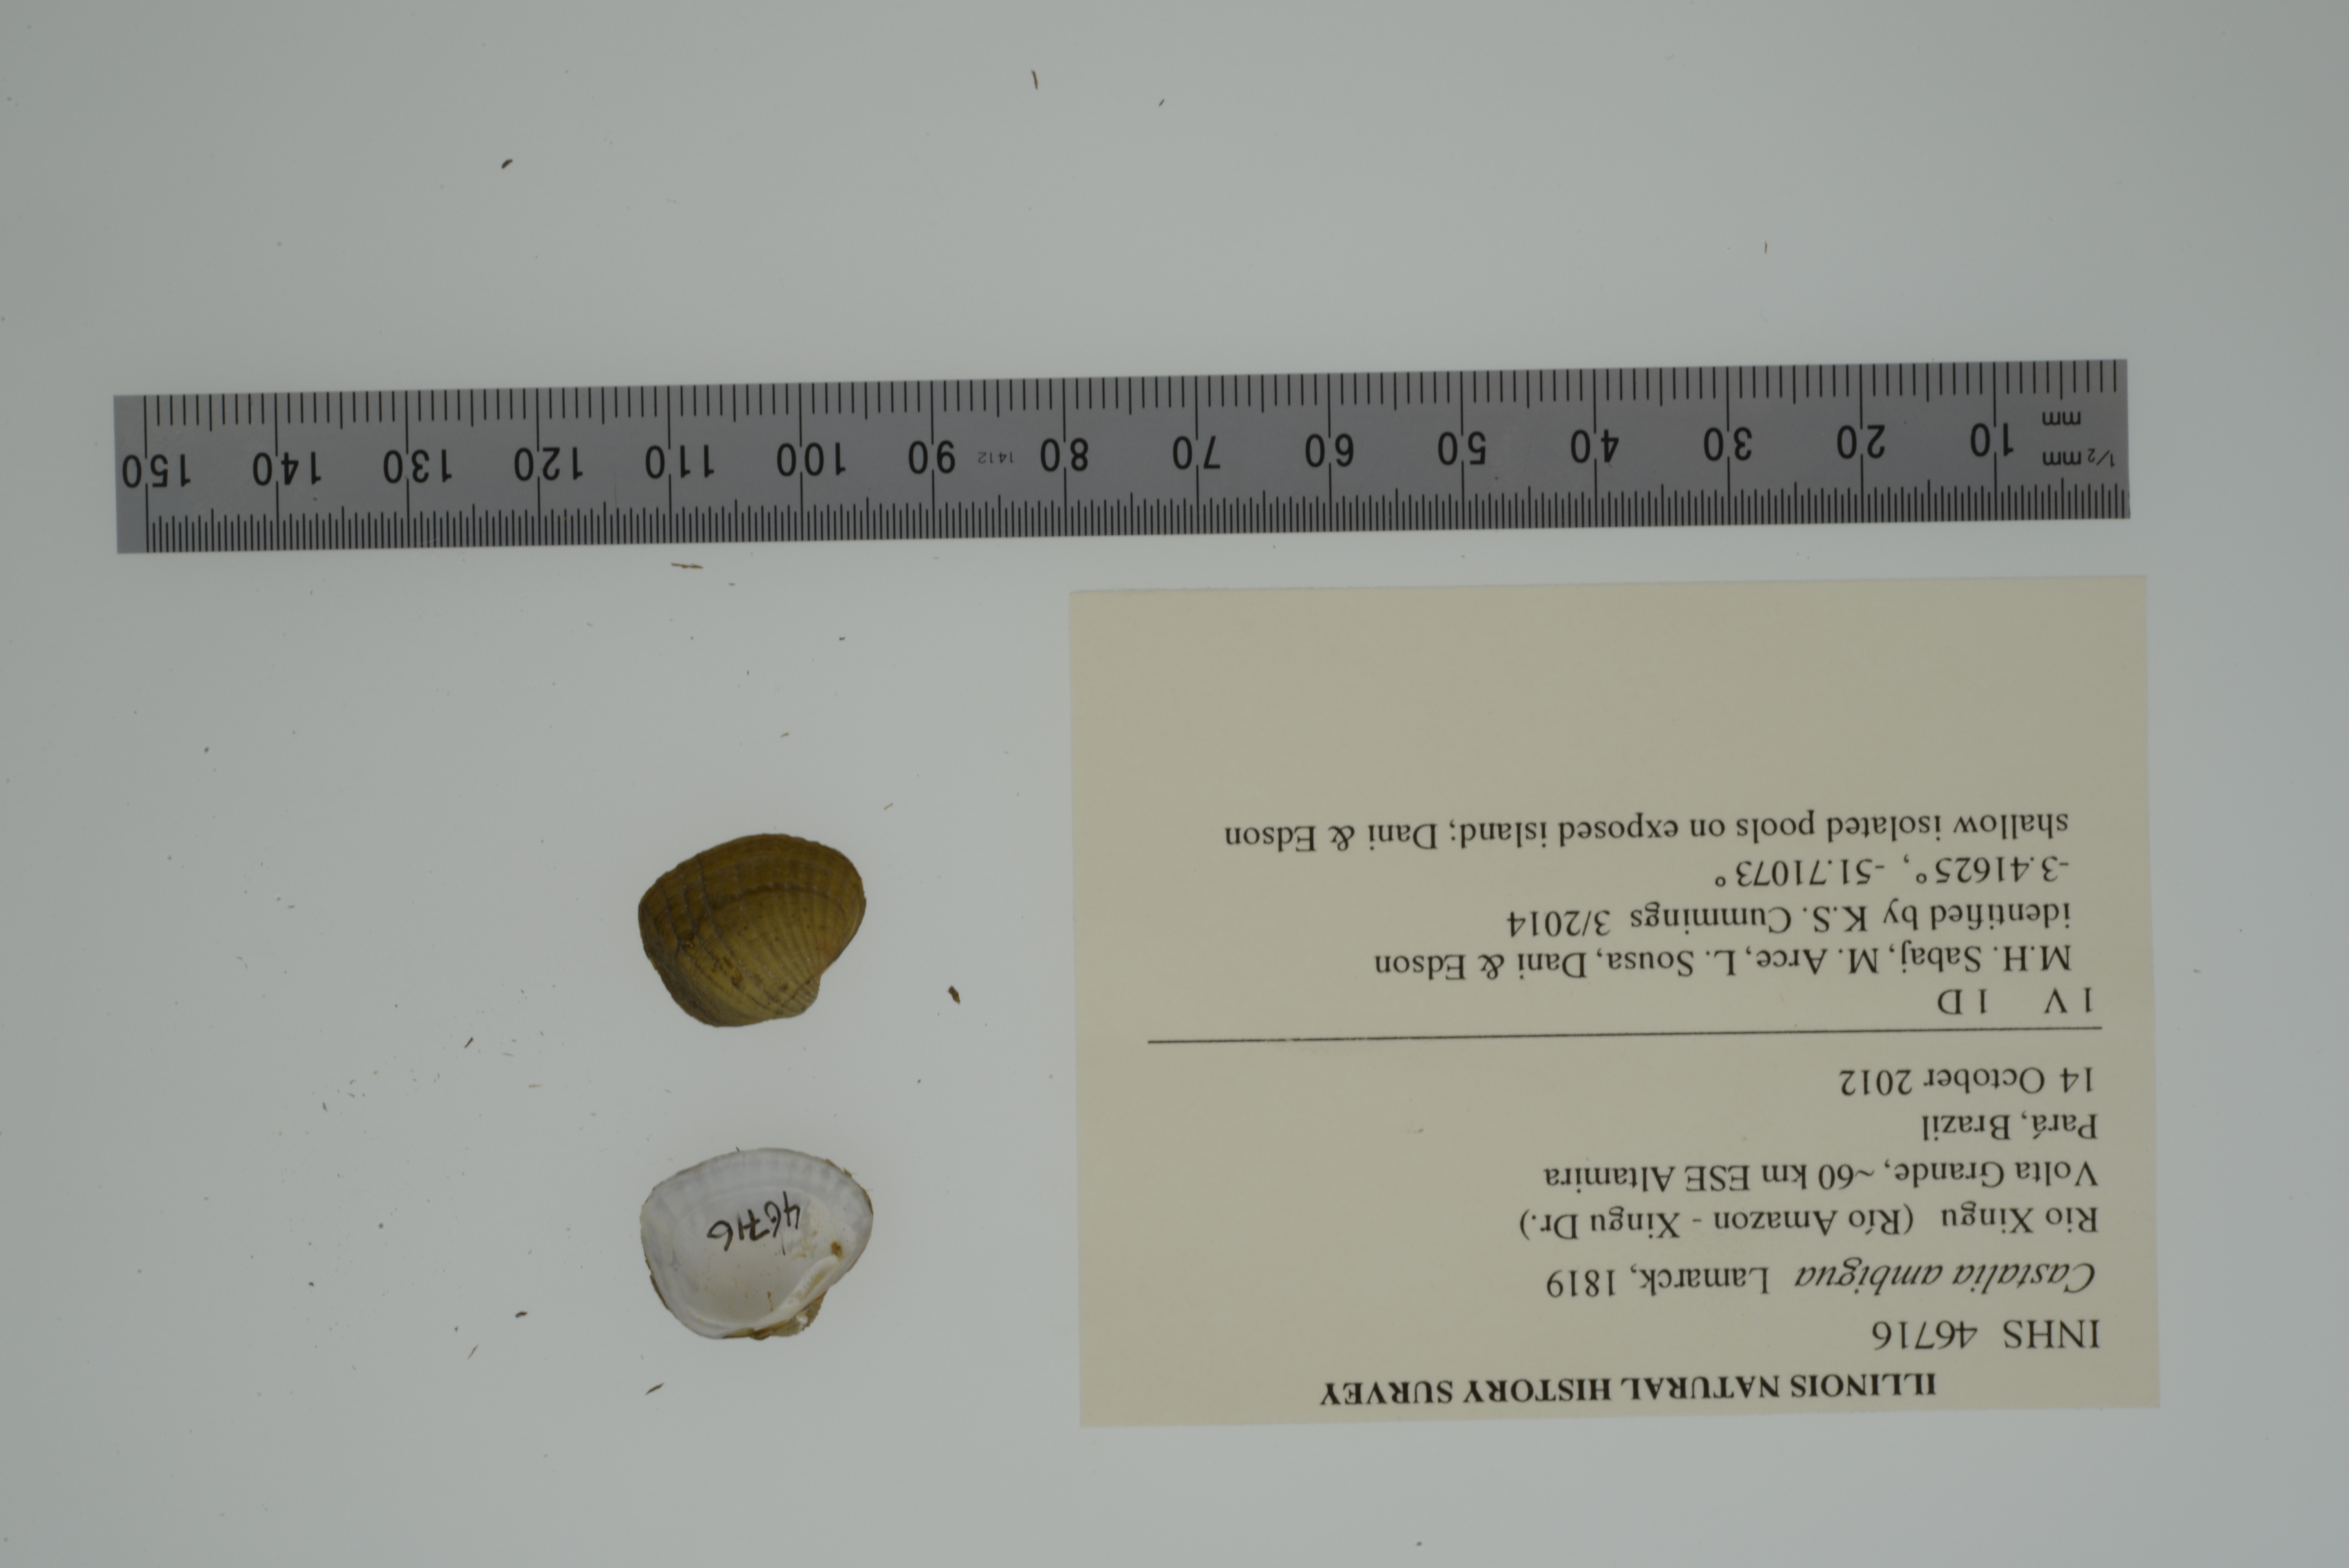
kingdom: Animalia
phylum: Mollusca
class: Bivalvia
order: Unionida
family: Hyriidae
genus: Castalia
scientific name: Castalia ambigua
